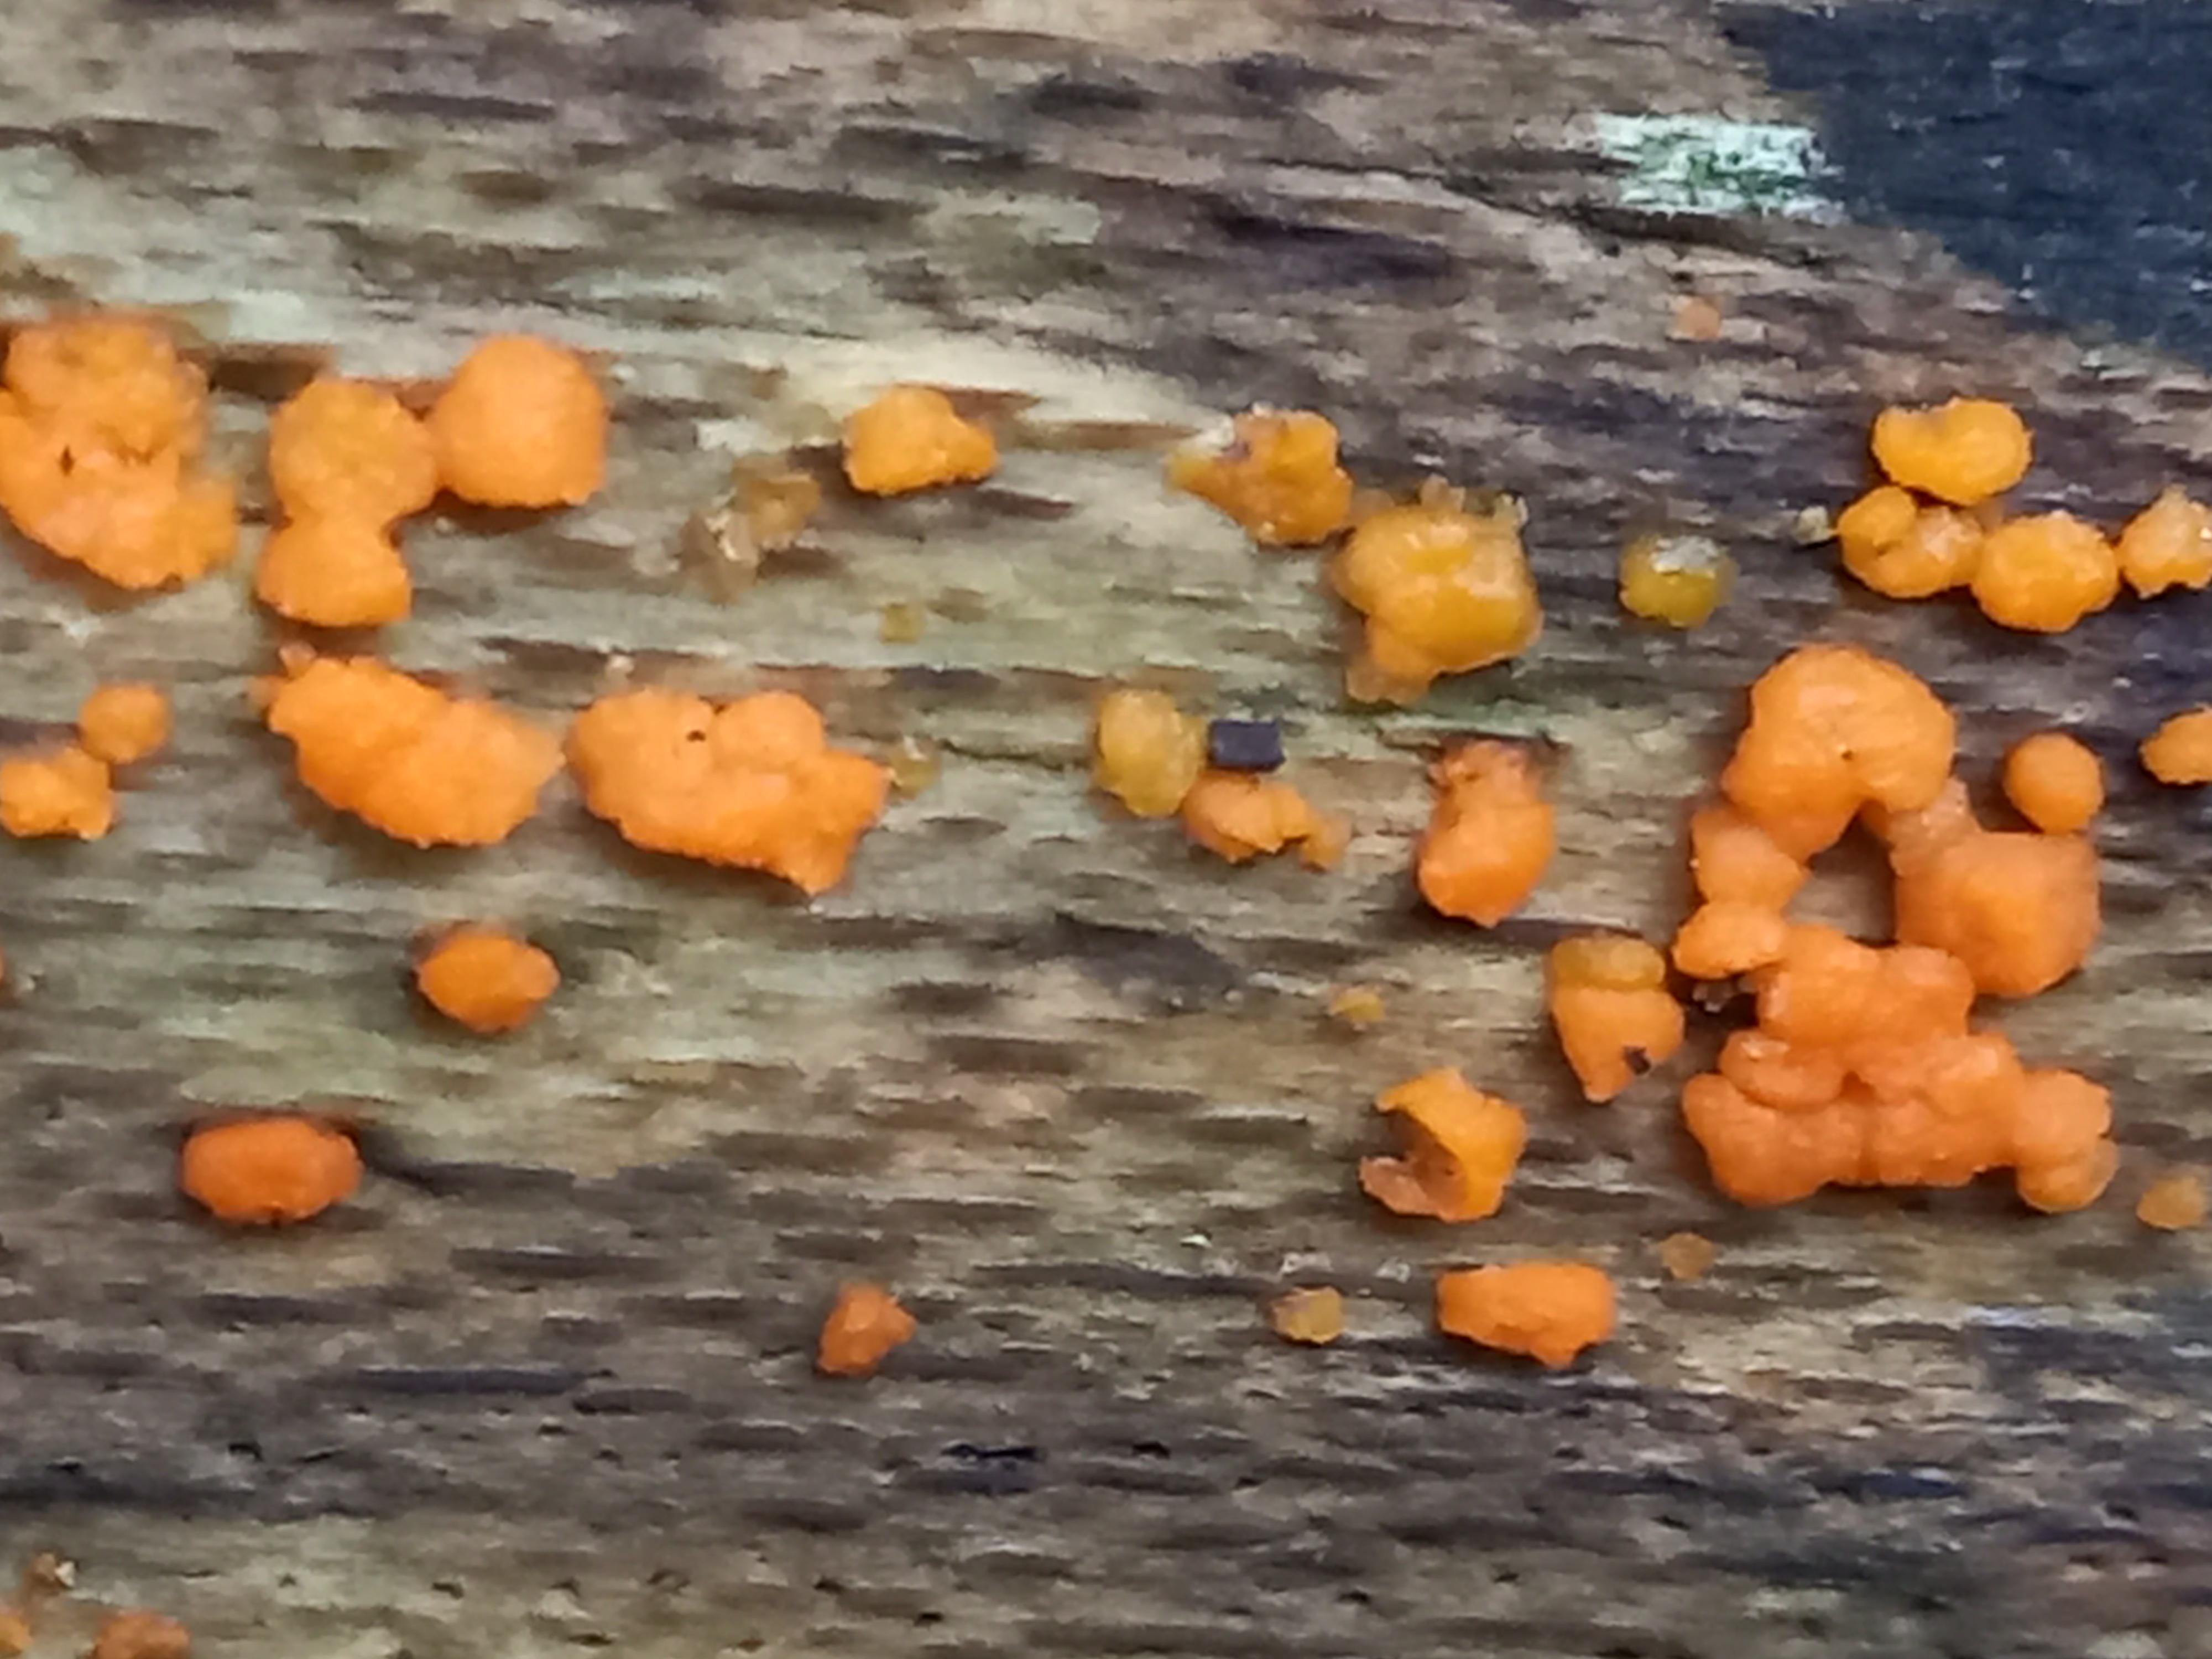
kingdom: Fungi
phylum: Basidiomycota
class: Dacrymycetes
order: Dacrymycetales
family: Dacrymycetaceae
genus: Dacrymyces
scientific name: Dacrymyces stillatus
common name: almindelig tåresvamp
